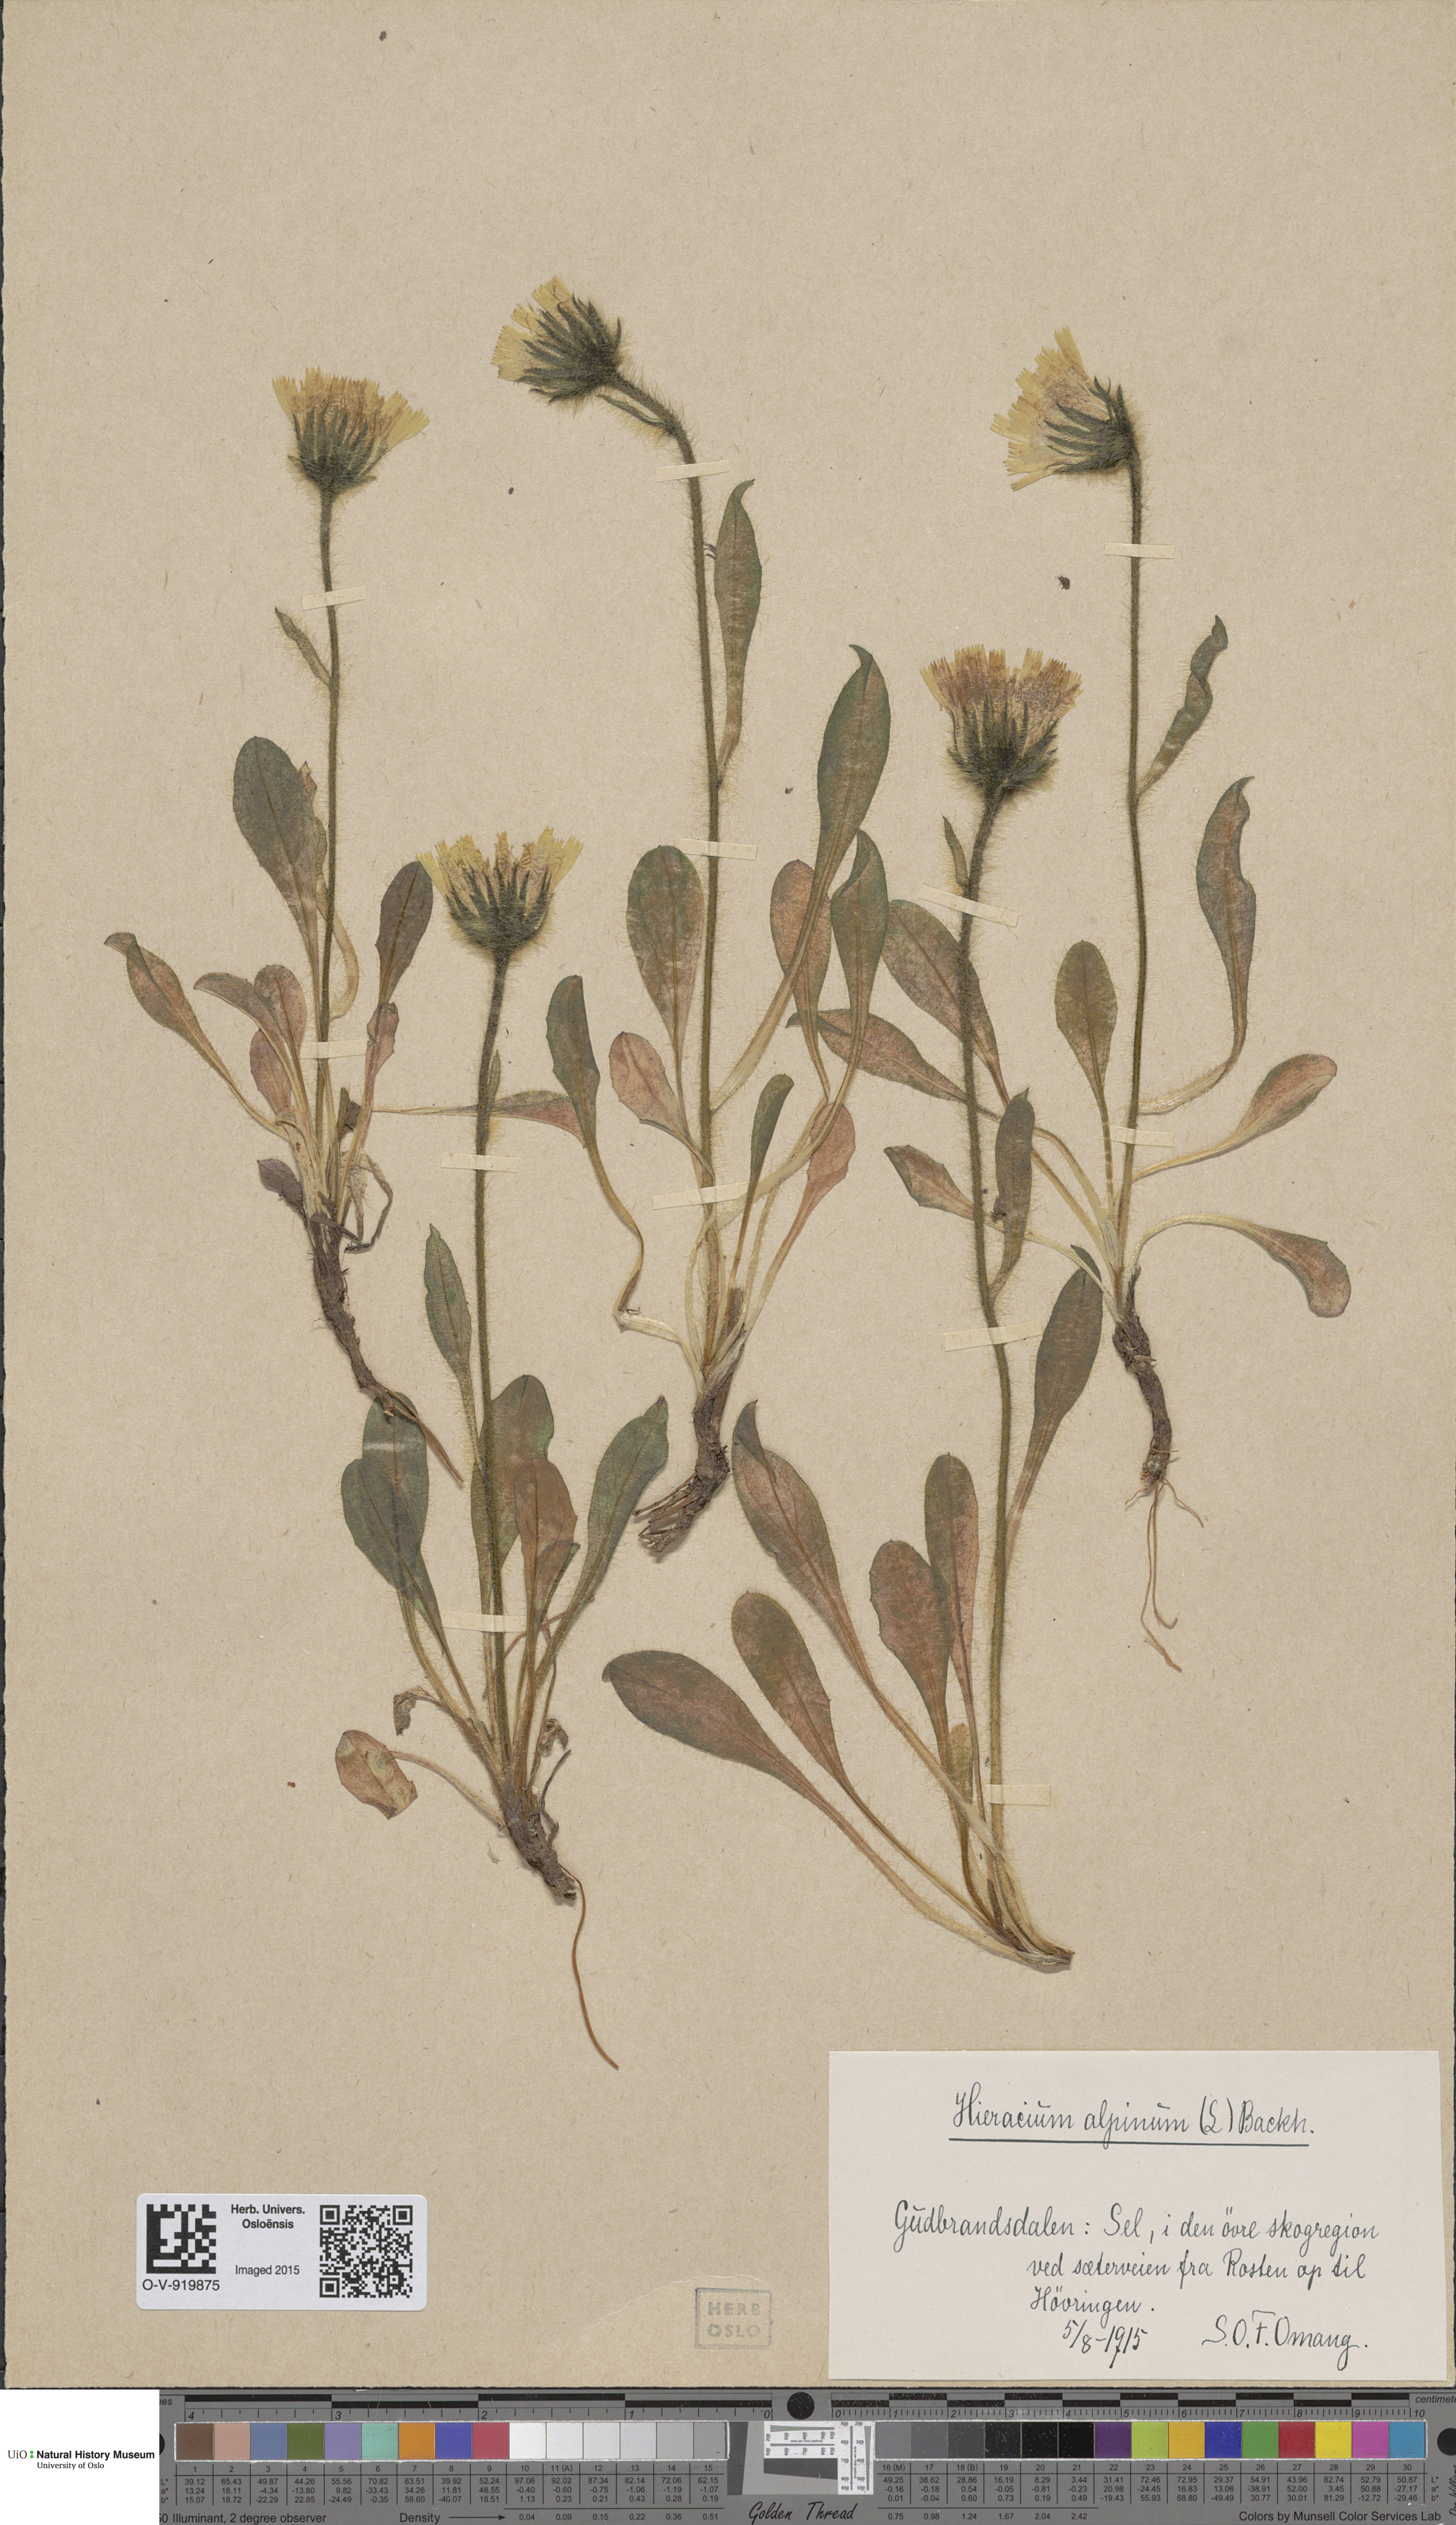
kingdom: Plantae
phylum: Tracheophyta
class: Magnoliopsida
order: Asterales
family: Asteraceae
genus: Hieracium
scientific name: Hieracium alpinum
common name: Alpine hawkweed
